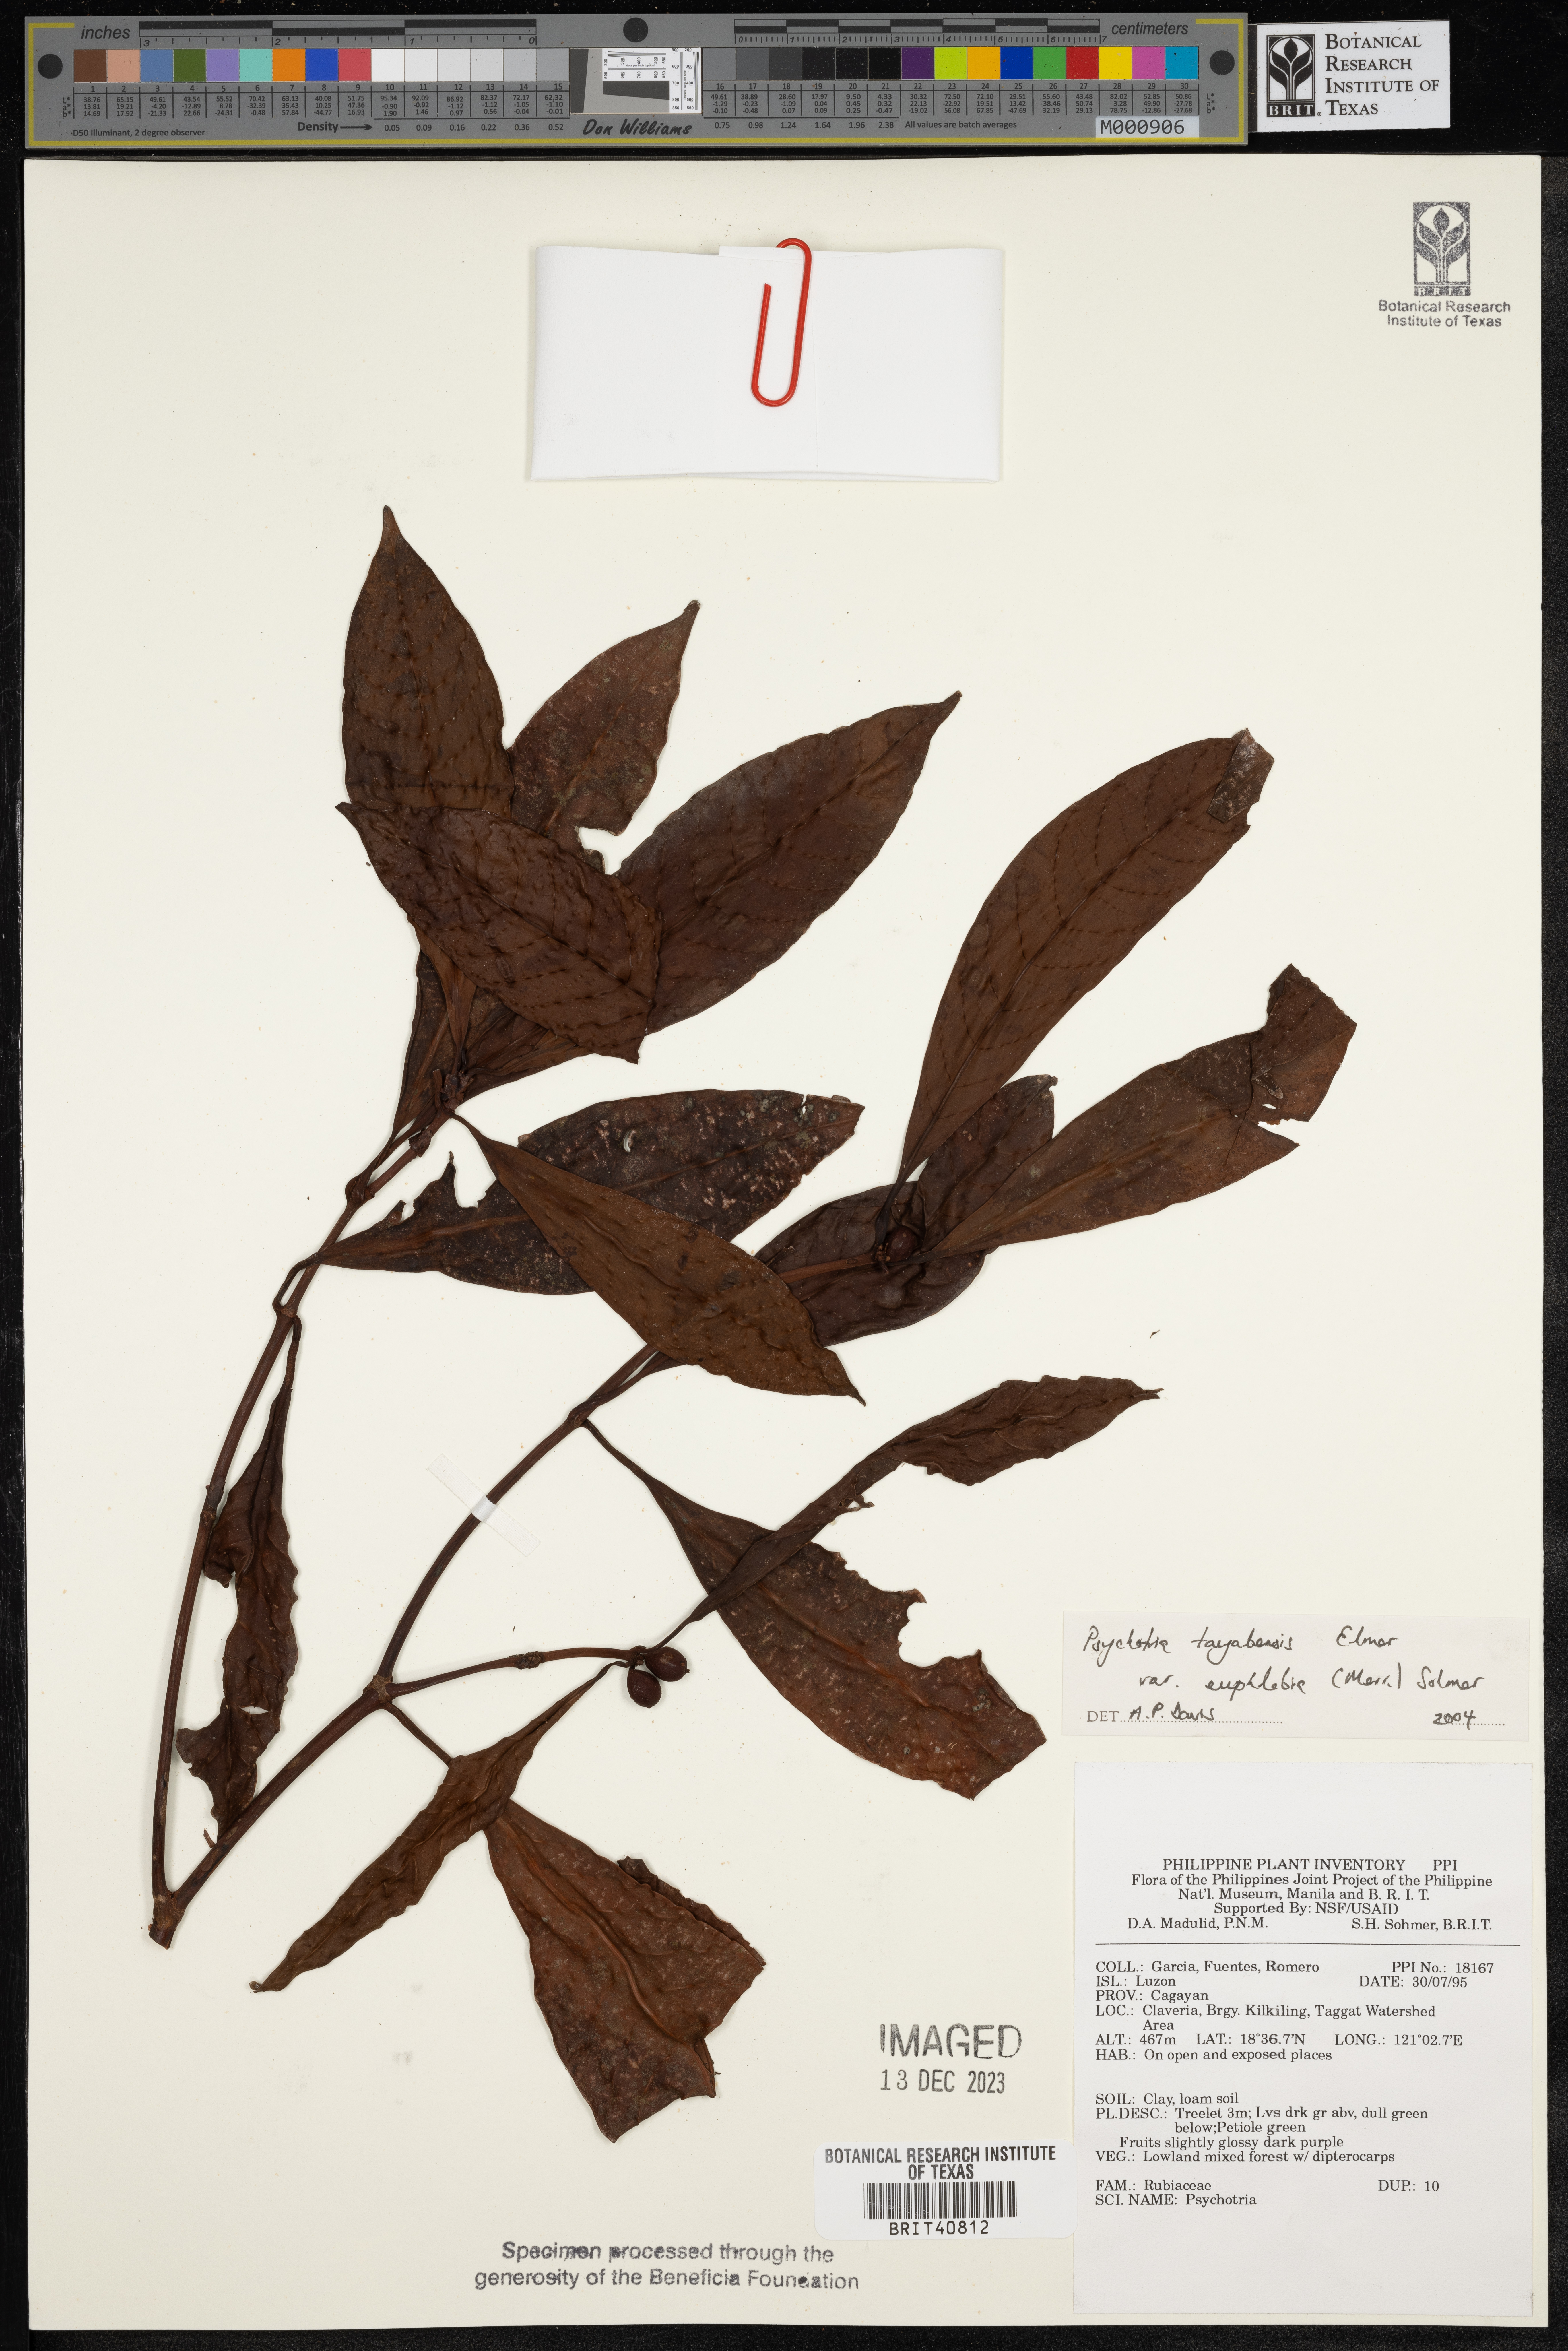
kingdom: Plantae
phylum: Tracheophyta
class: Magnoliopsida
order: Gentianales
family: Rubiaceae
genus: Psychotria
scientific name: Psychotria tayabensis
